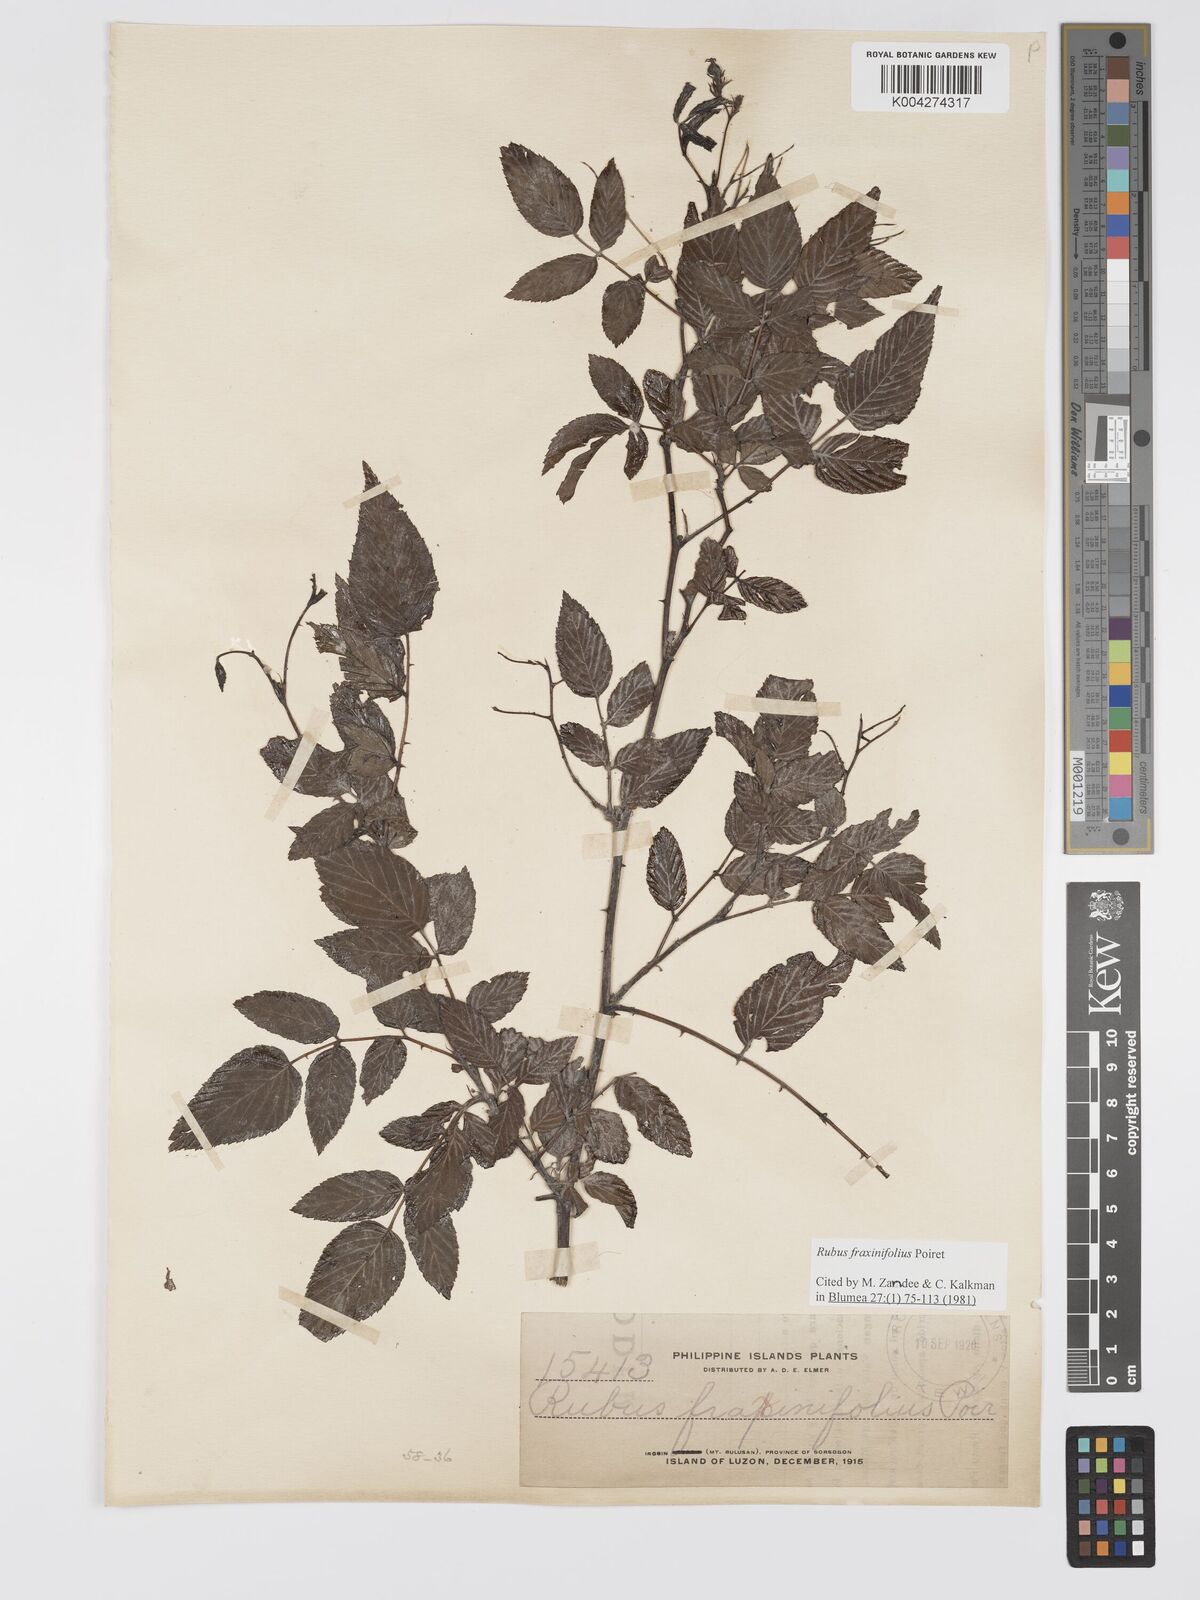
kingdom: Plantae
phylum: Tracheophyta
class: Magnoliopsida
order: Rosales
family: Rosaceae
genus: Rubus
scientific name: Rubus fraxinifolius
